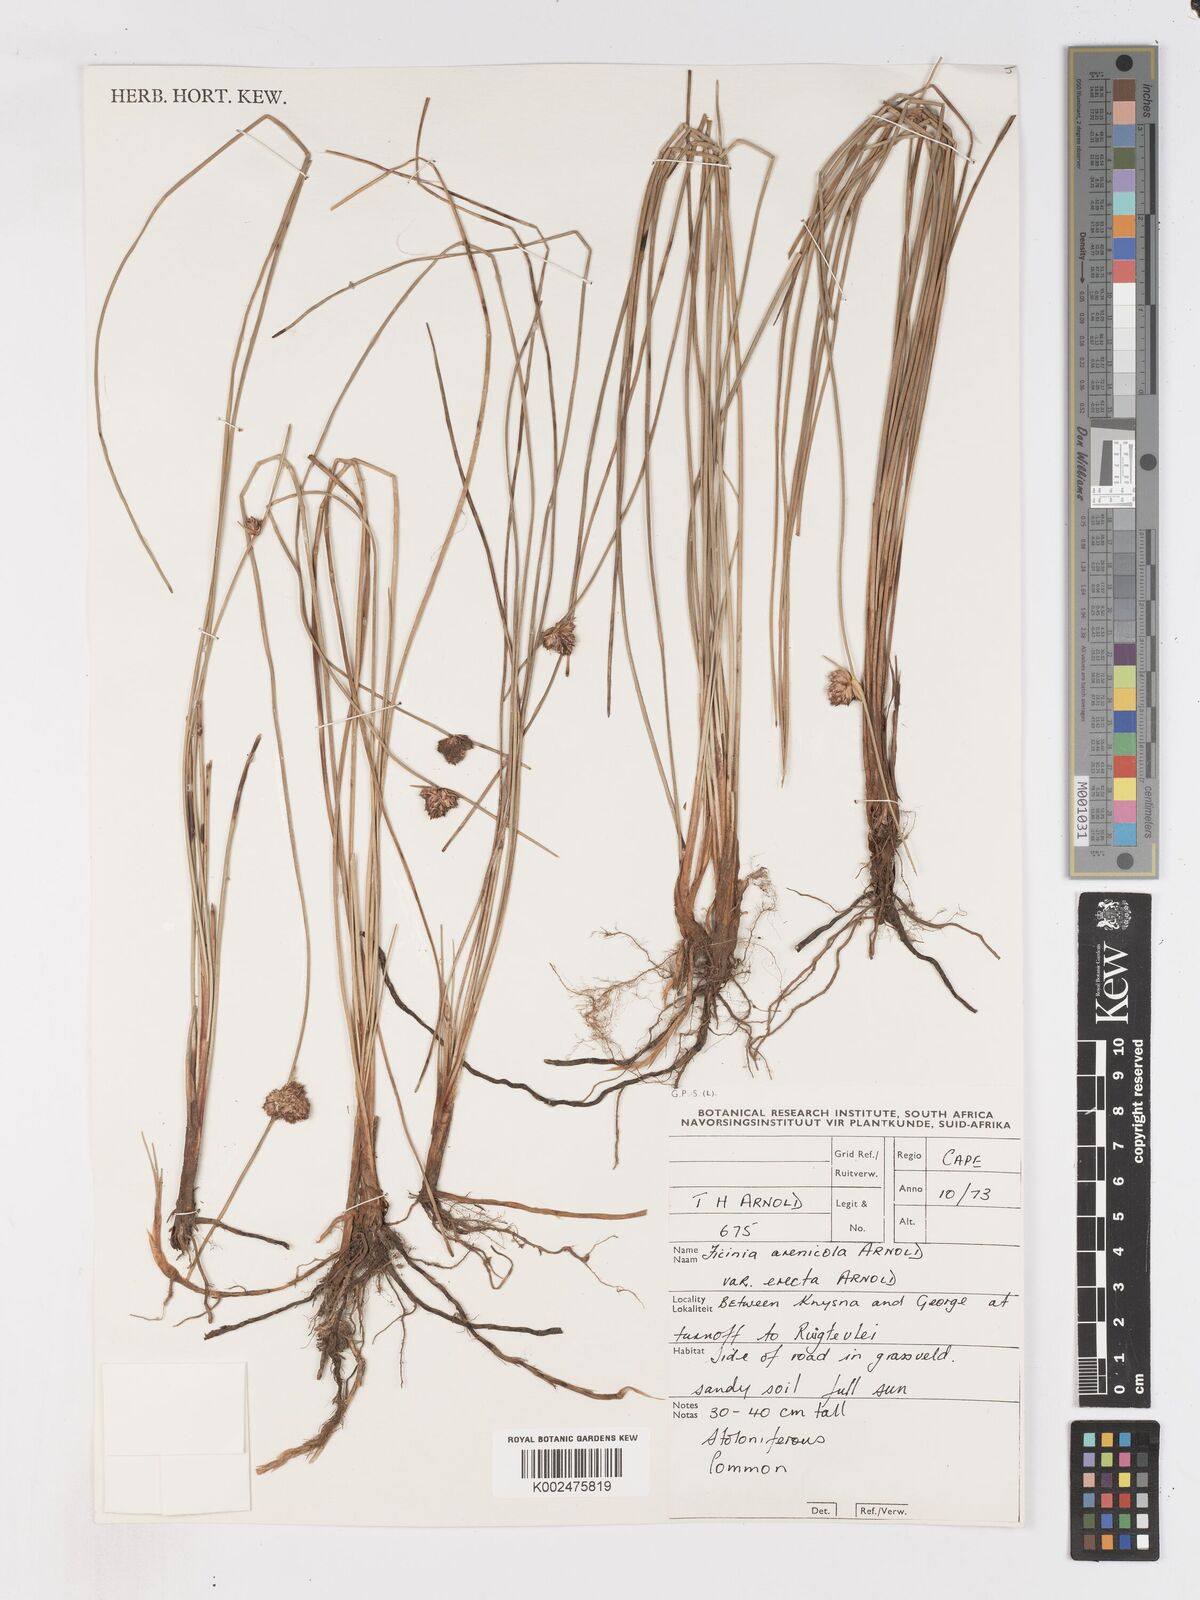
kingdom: Plantae
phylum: Tracheophyta
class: Liliopsida
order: Poales
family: Cyperaceae
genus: Ficinia
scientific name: Ficinia arenicola
